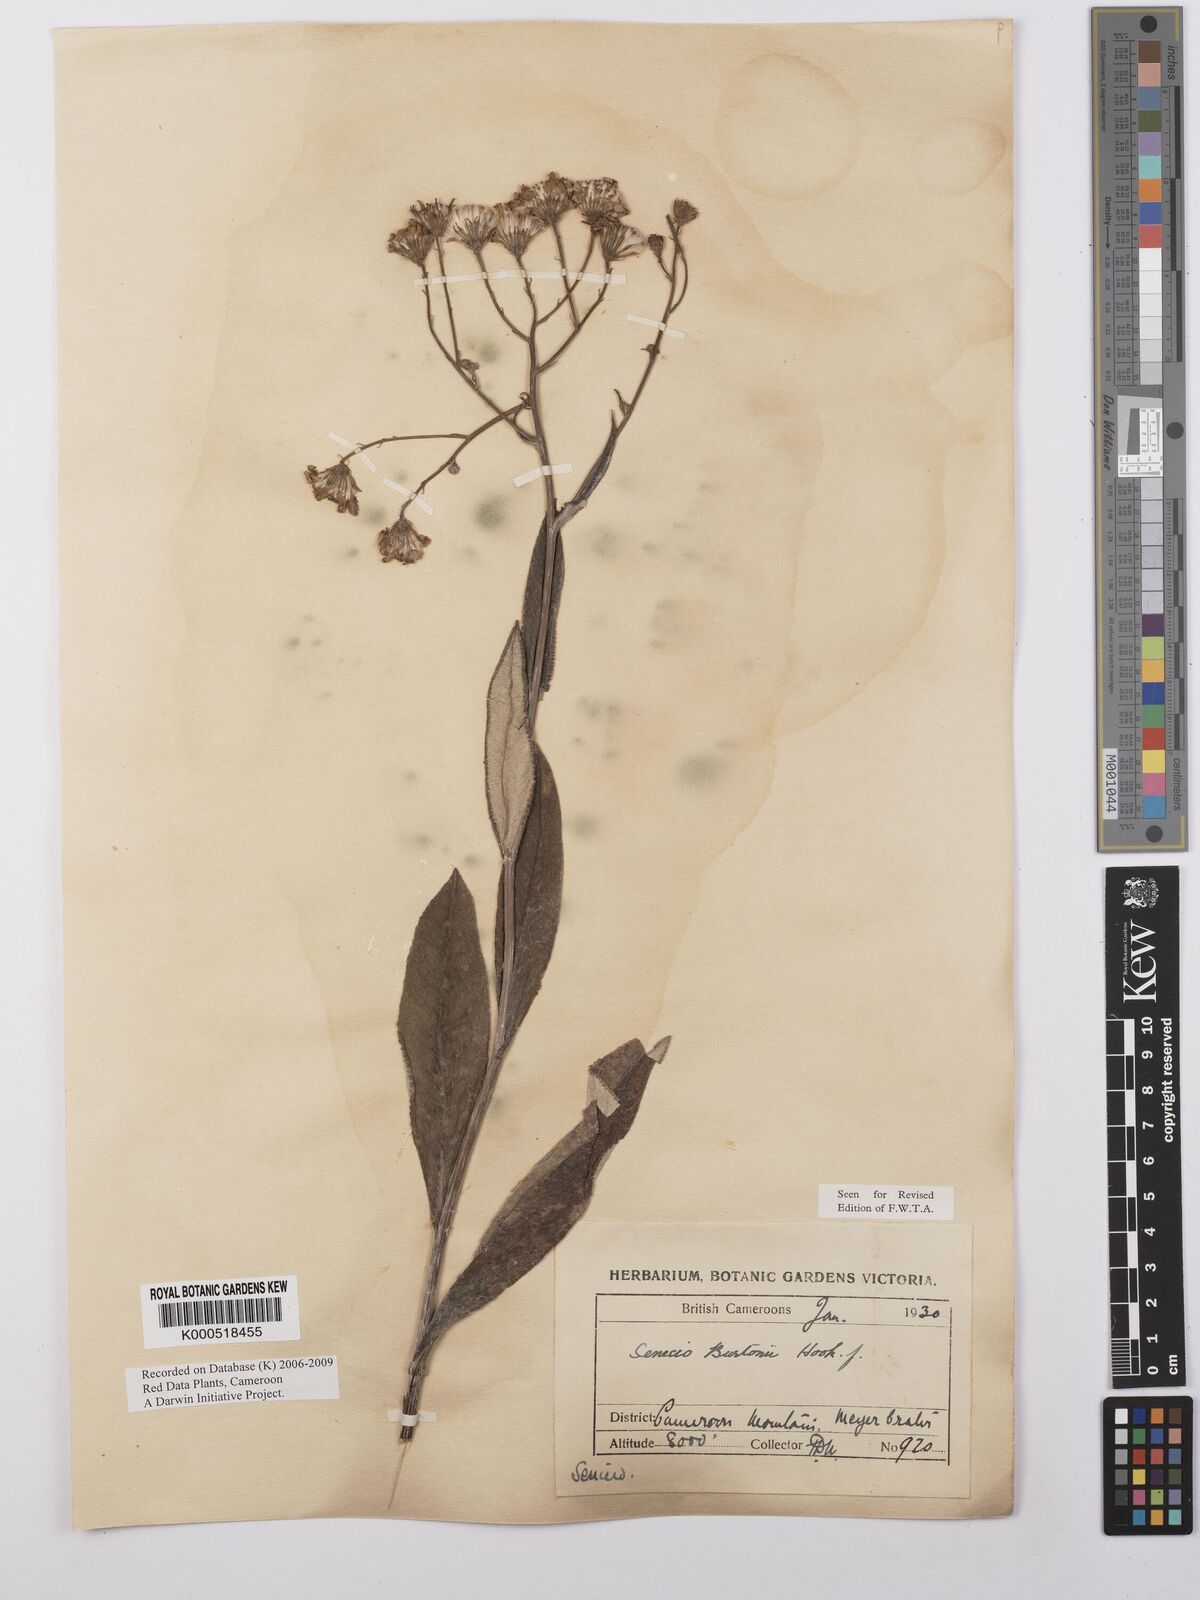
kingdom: Plantae
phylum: Tracheophyta
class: Magnoliopsida
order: Asterales
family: Asteraceae
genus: Senecio
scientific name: Senecio burtonii
